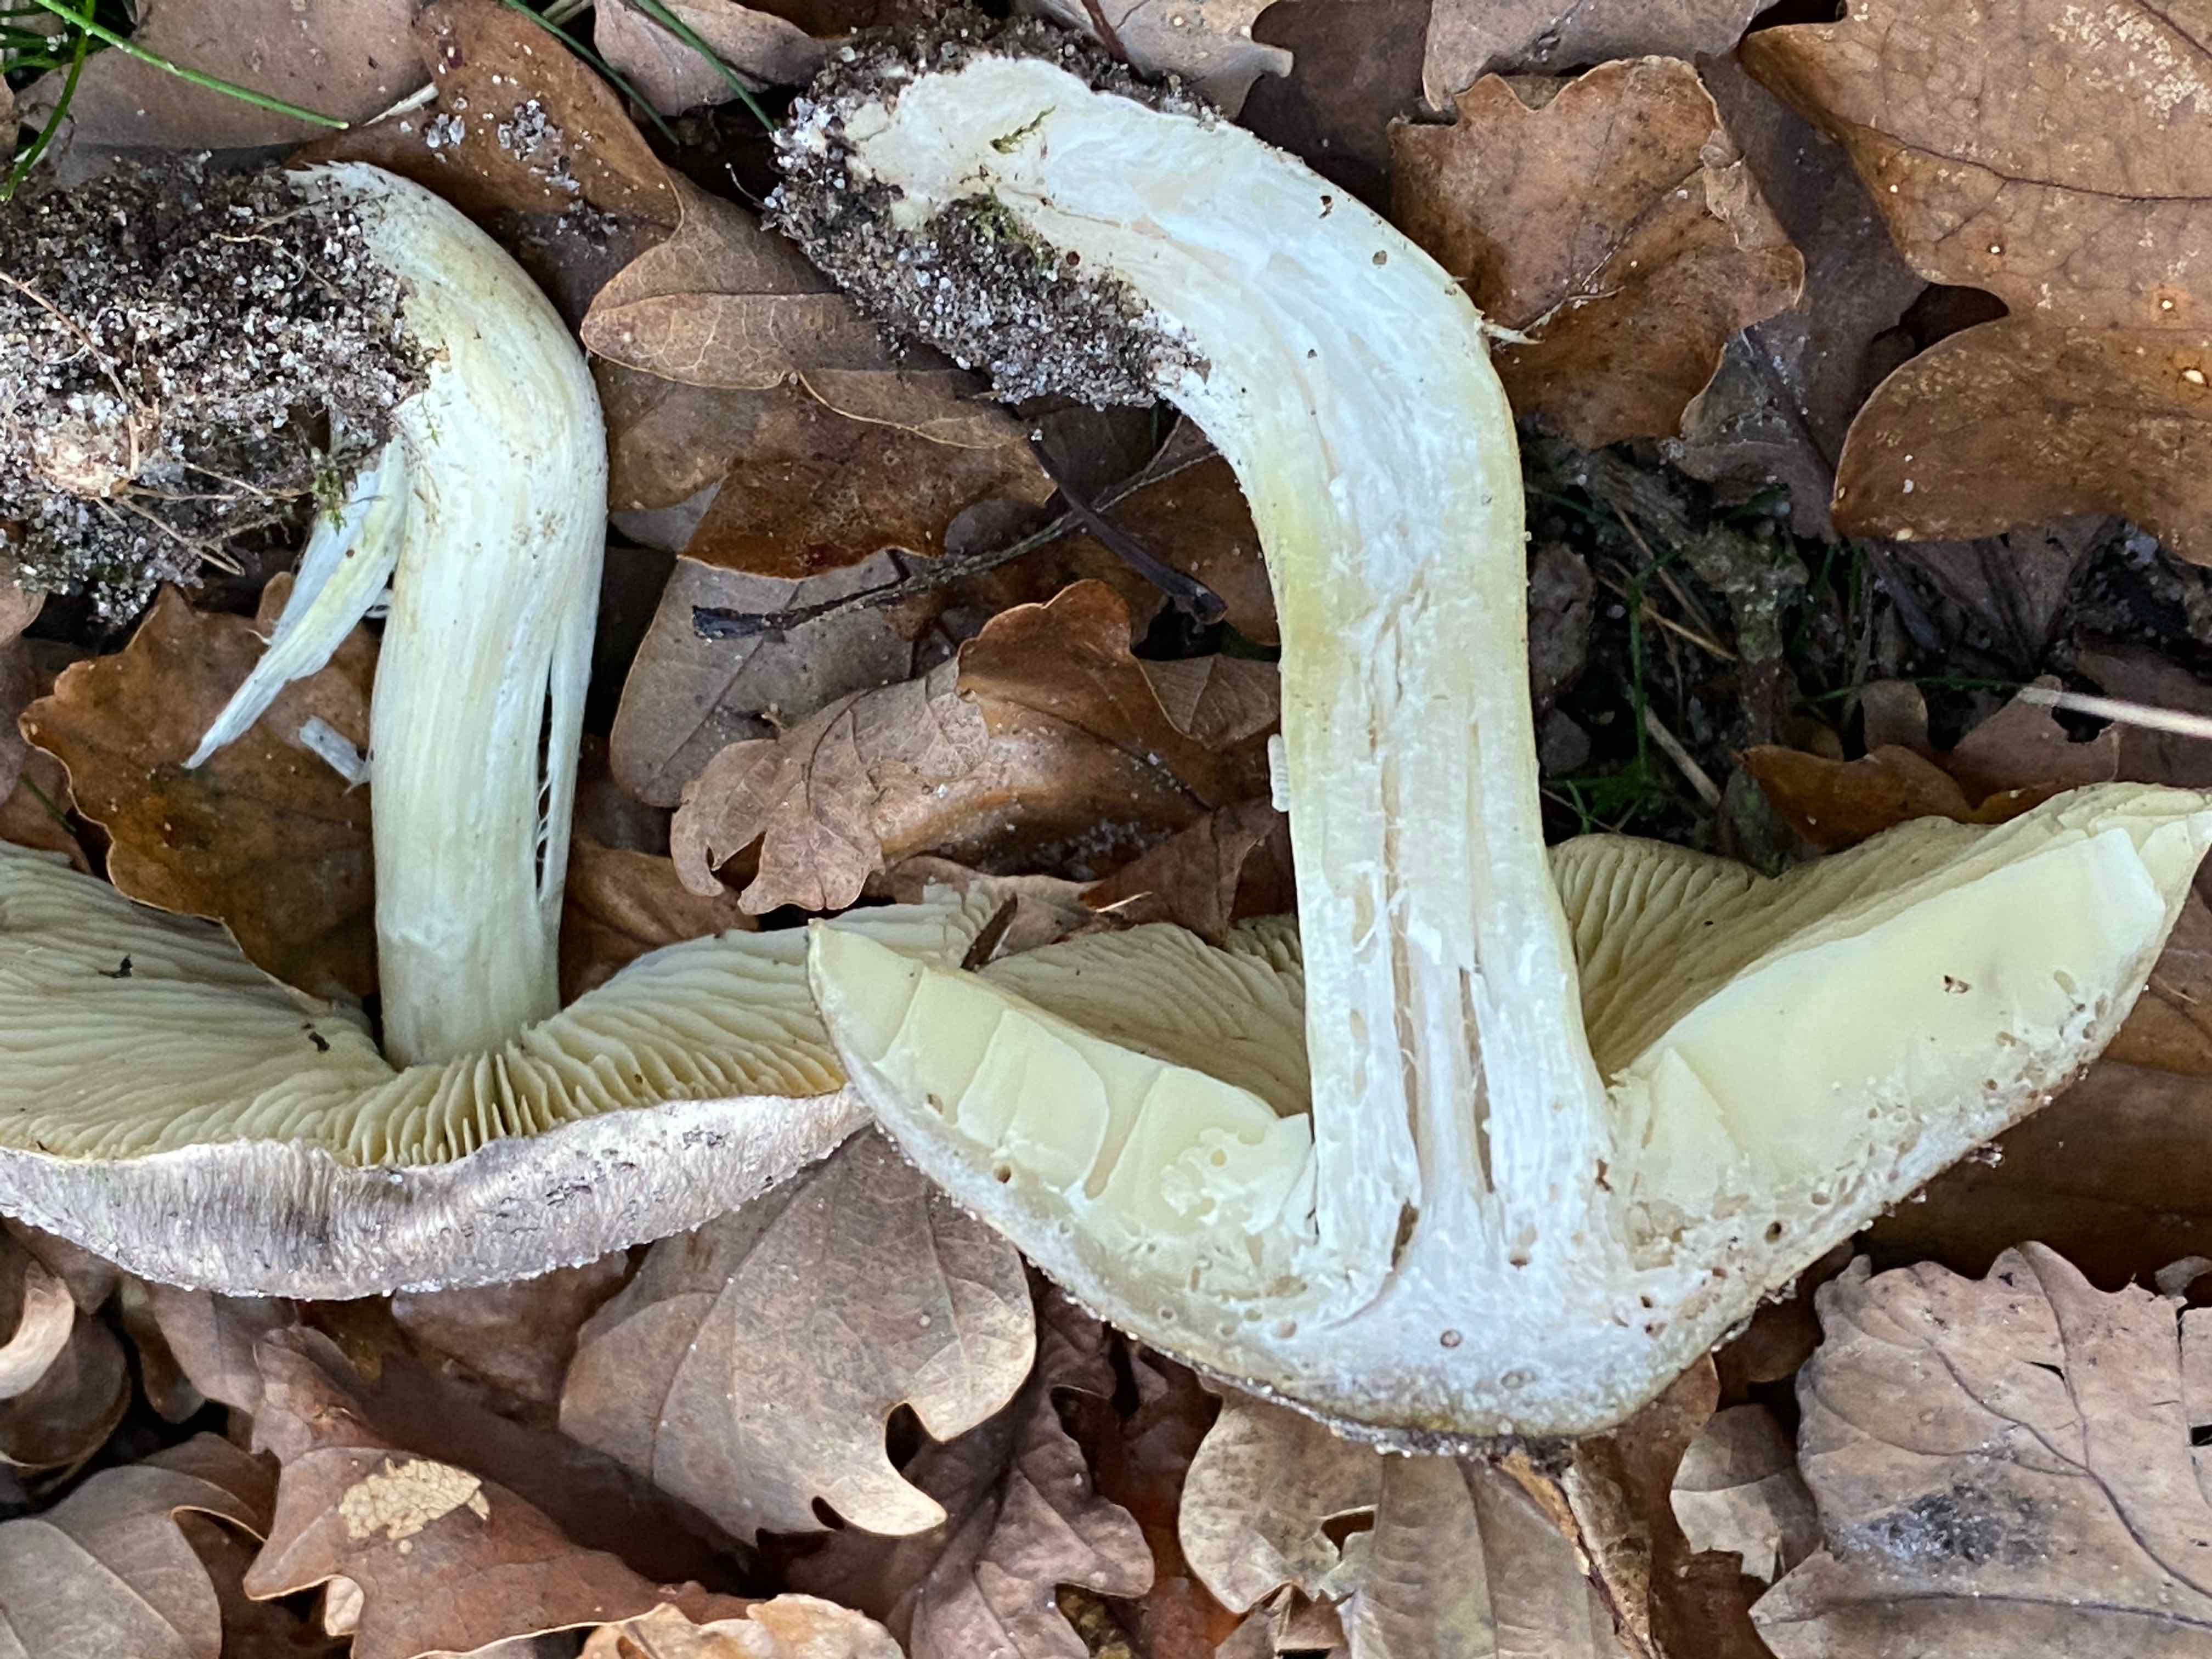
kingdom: Fungi
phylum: Basidiomycota
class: Agaricomycetes
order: Agaricales
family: Tricholomataceae
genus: Tricholoma
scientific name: Tricholoma portentosum
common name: grå ridderhat
